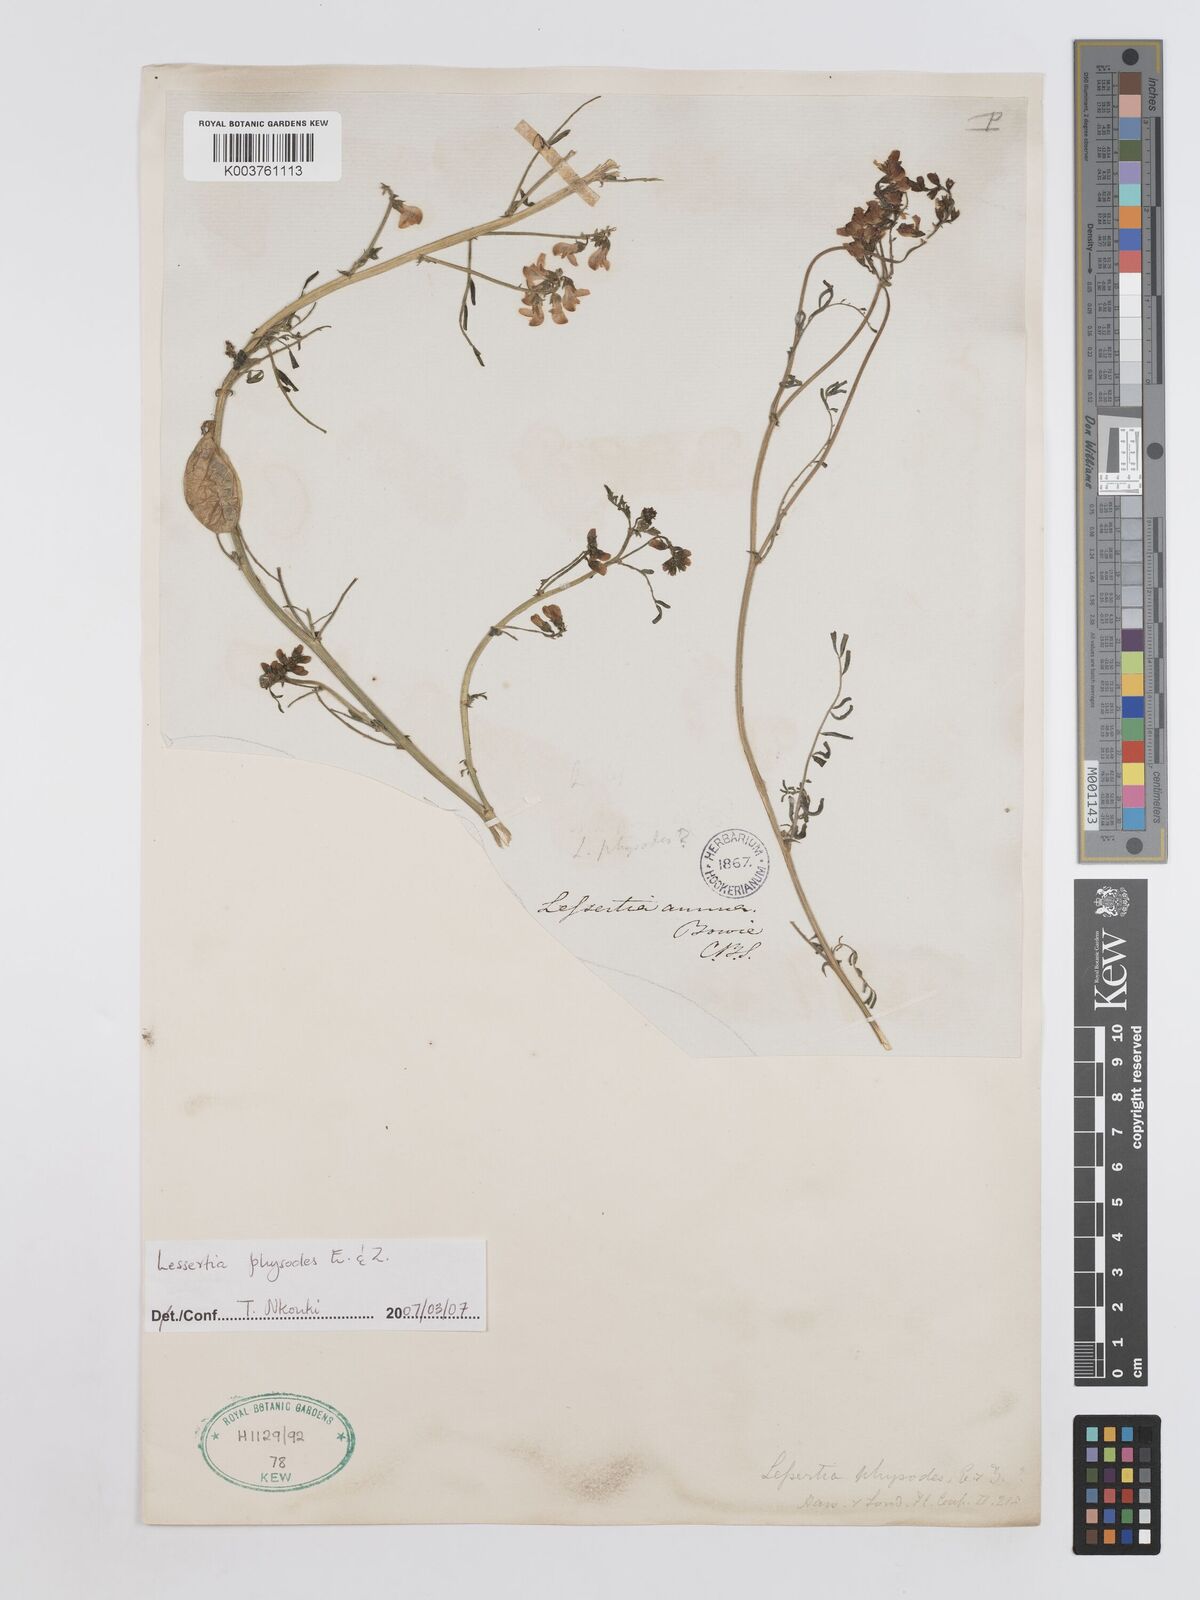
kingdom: Plantae
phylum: Tracheophyta
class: Magnoliopsida
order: Fabales
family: Fabaceae
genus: Lessertia
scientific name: Lessertia physodes
